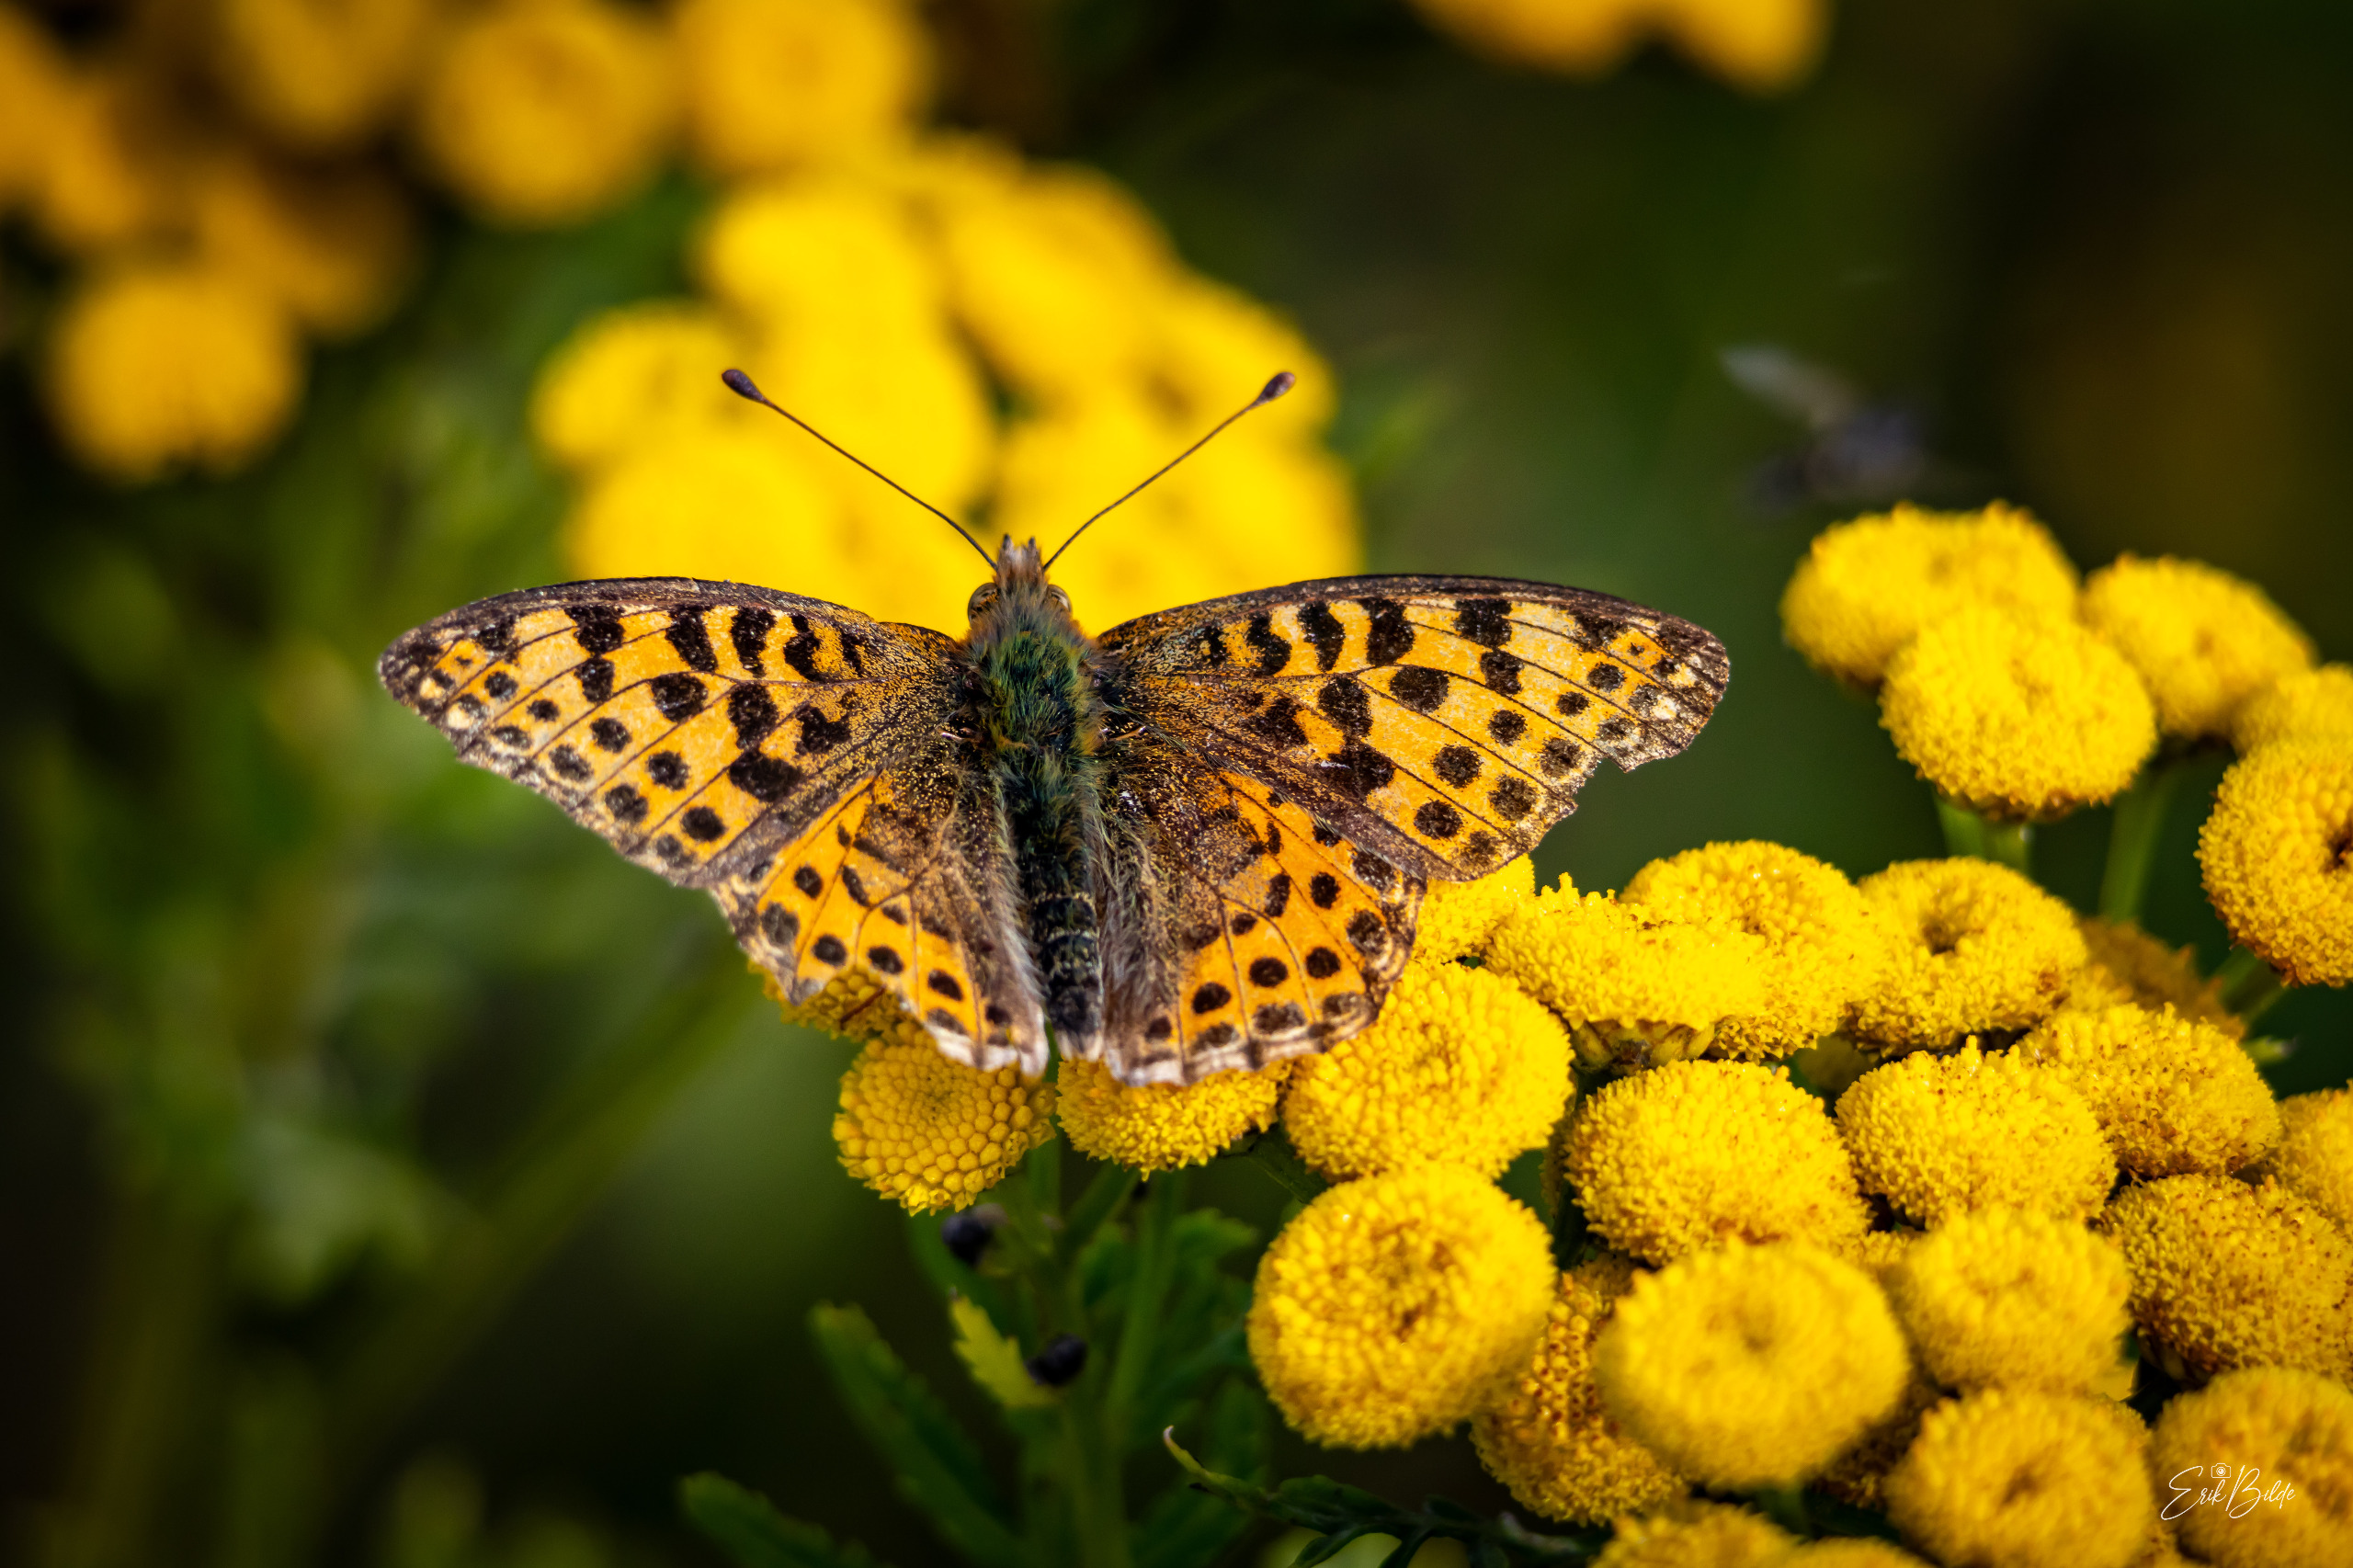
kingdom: Animalia
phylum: Arthropoda
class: Insecta
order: Lepidoptera
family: Nymphalidae
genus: Issoria
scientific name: Issoria lathonia
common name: Storplettet perlemorsommerfugl
